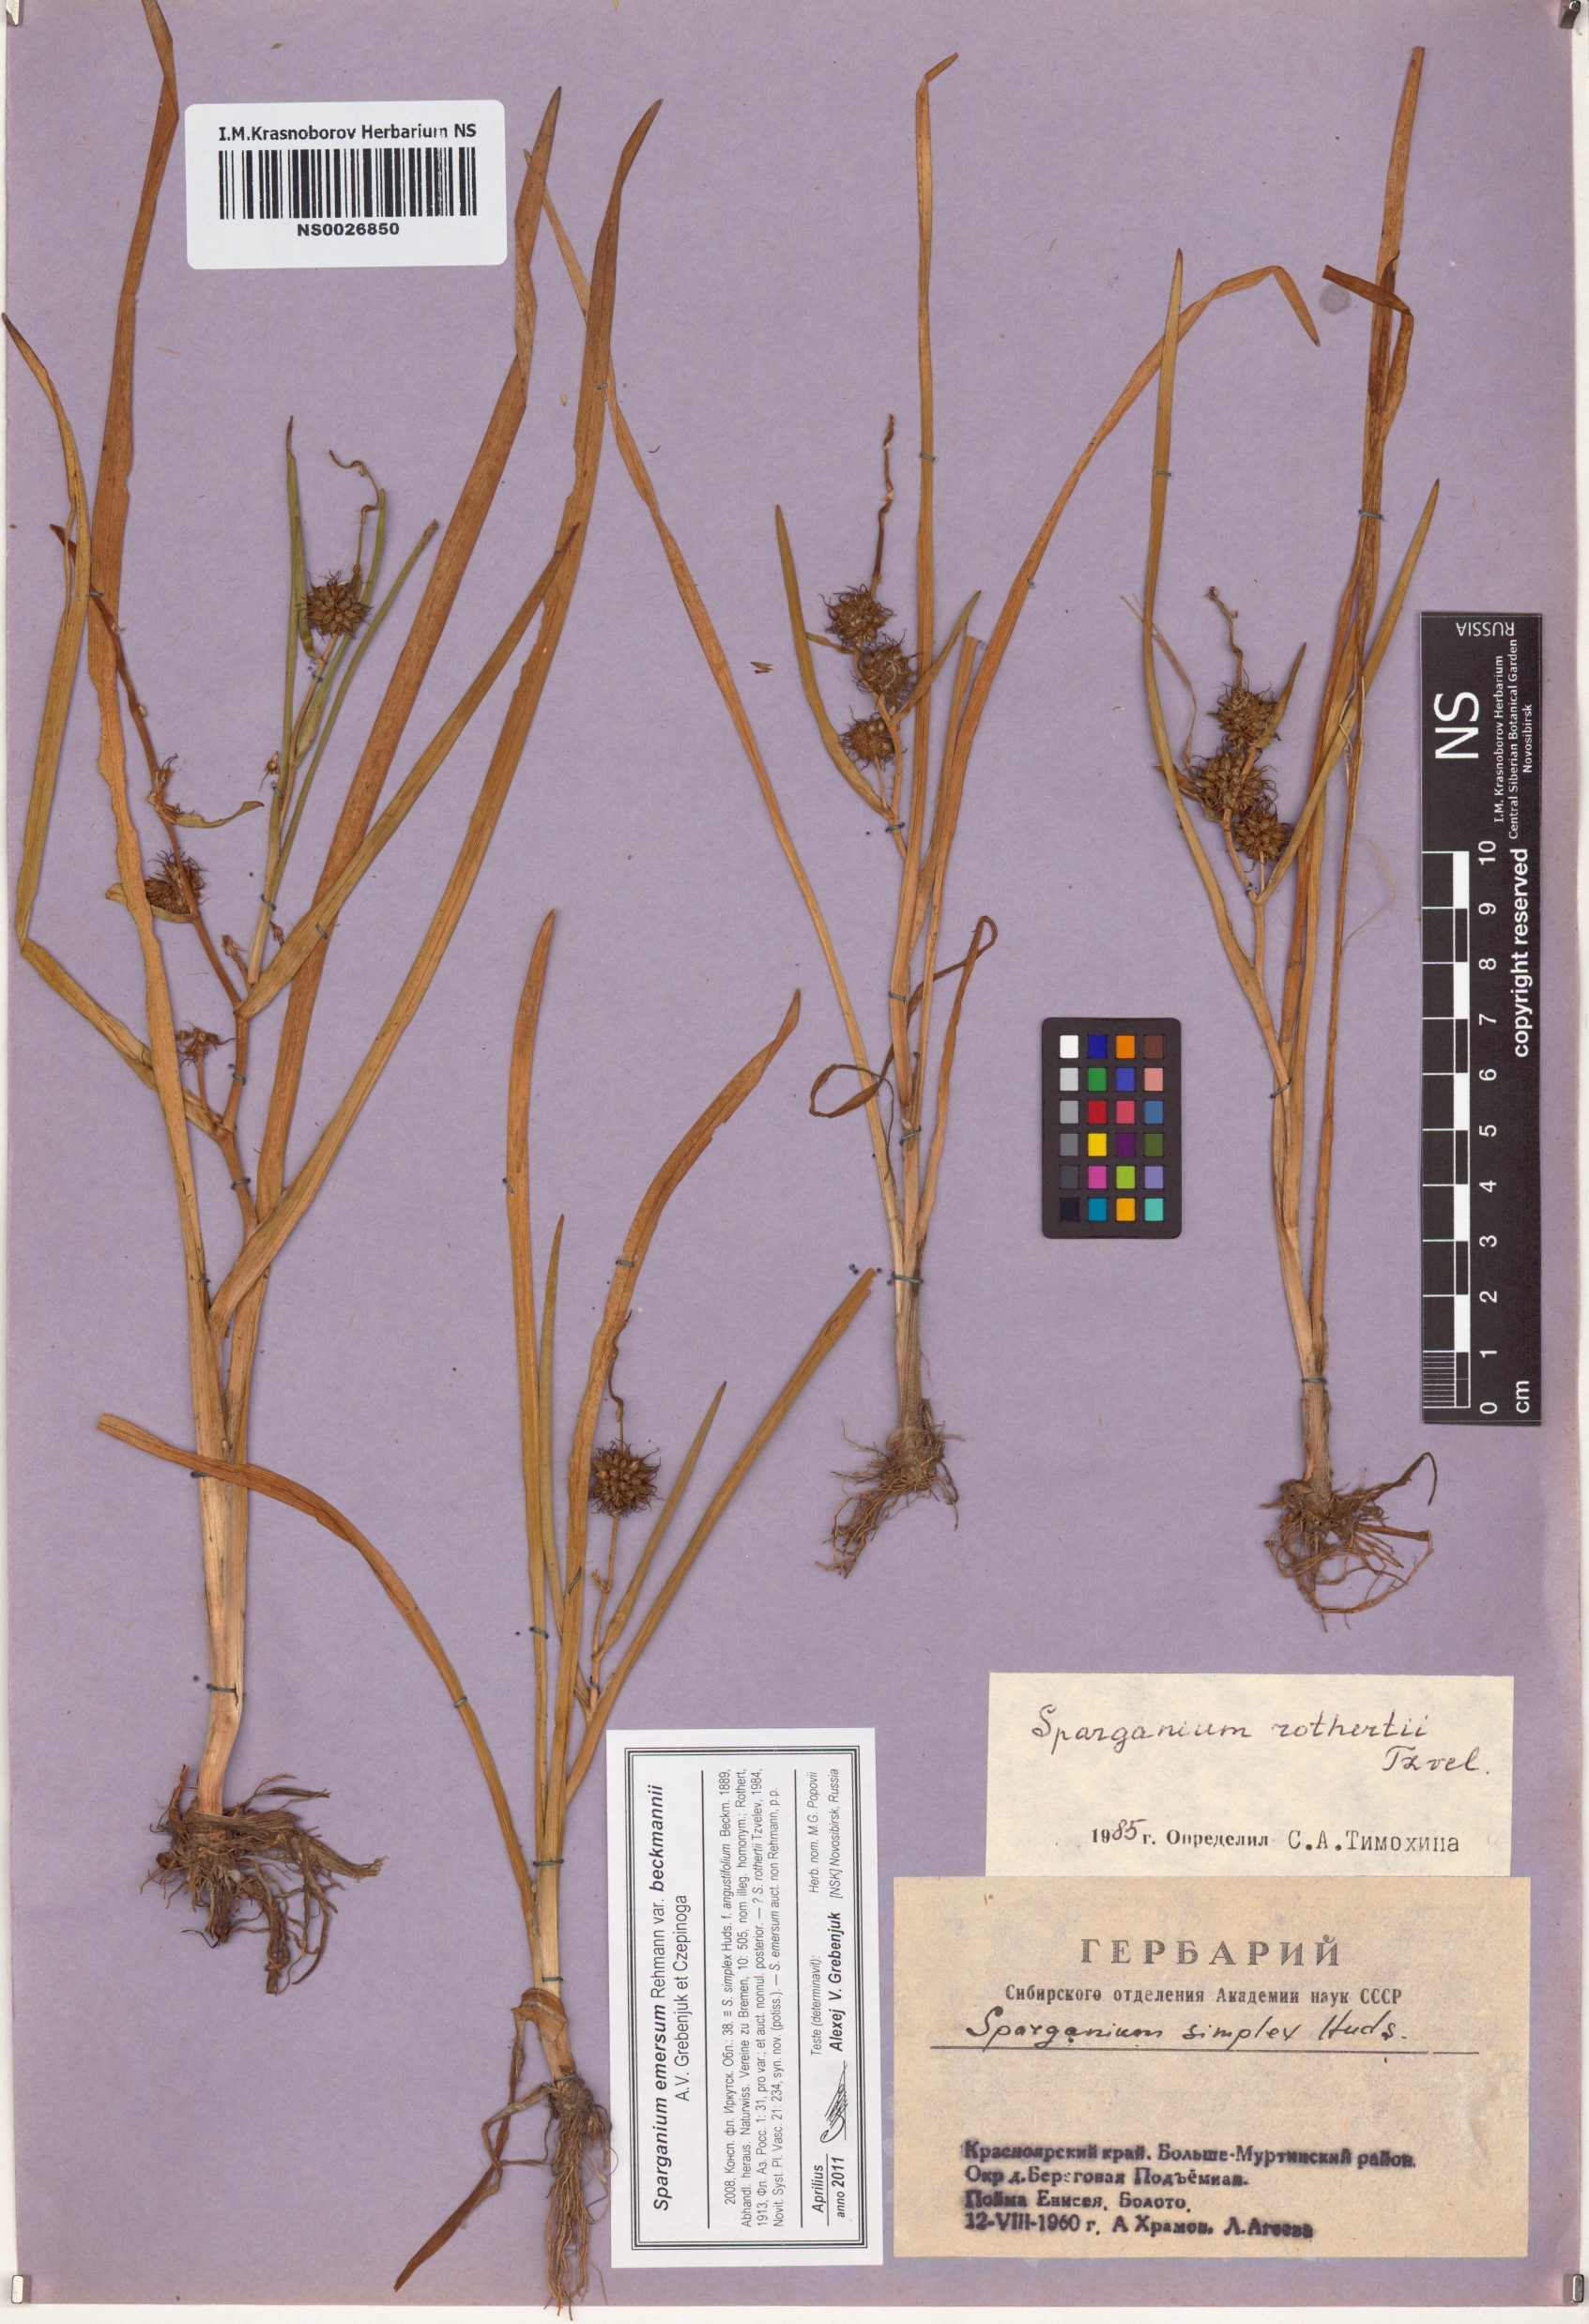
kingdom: Plantae
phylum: Tracheophyta
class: Liliopsida
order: Poales
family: Typhaceae
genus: Sparganium
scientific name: Sparganium emersum
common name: Unbranched bur-reed
